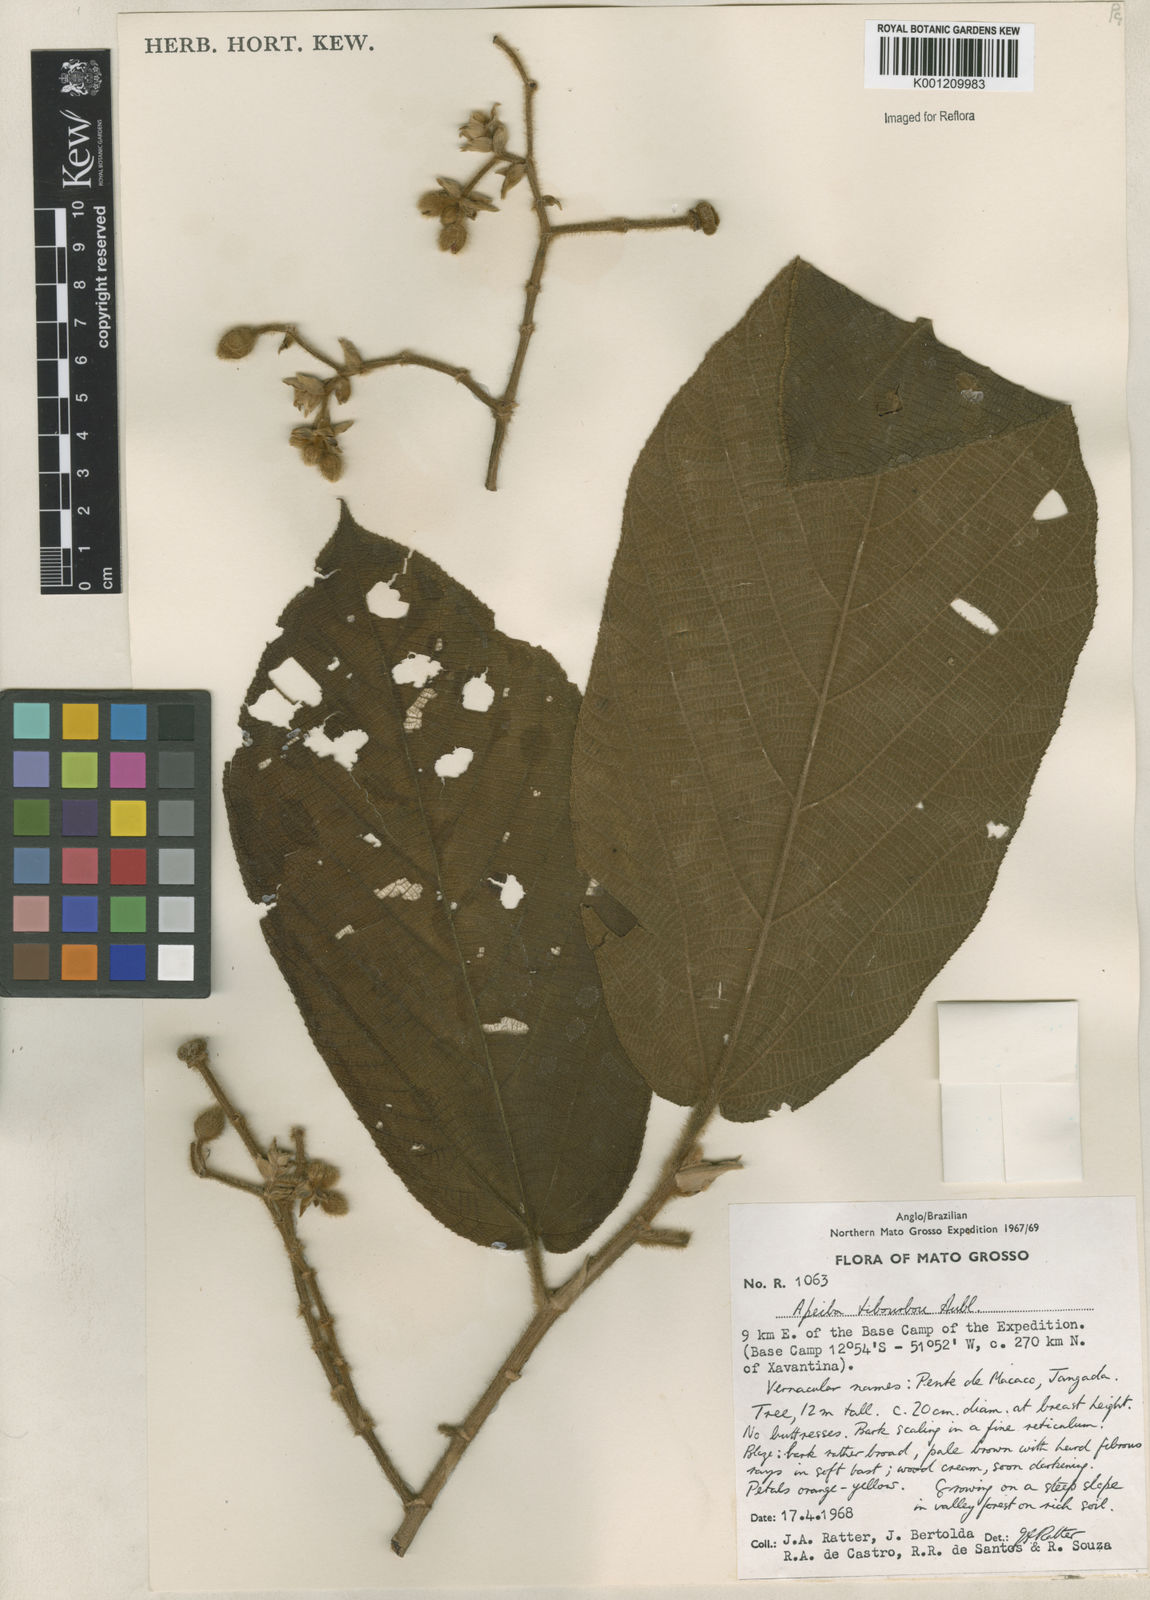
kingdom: Plantae
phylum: Tracheophyta
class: Magnoliopsida
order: Malvales
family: Malvaceae
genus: Apeiba
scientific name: Apeiba tibourbou
